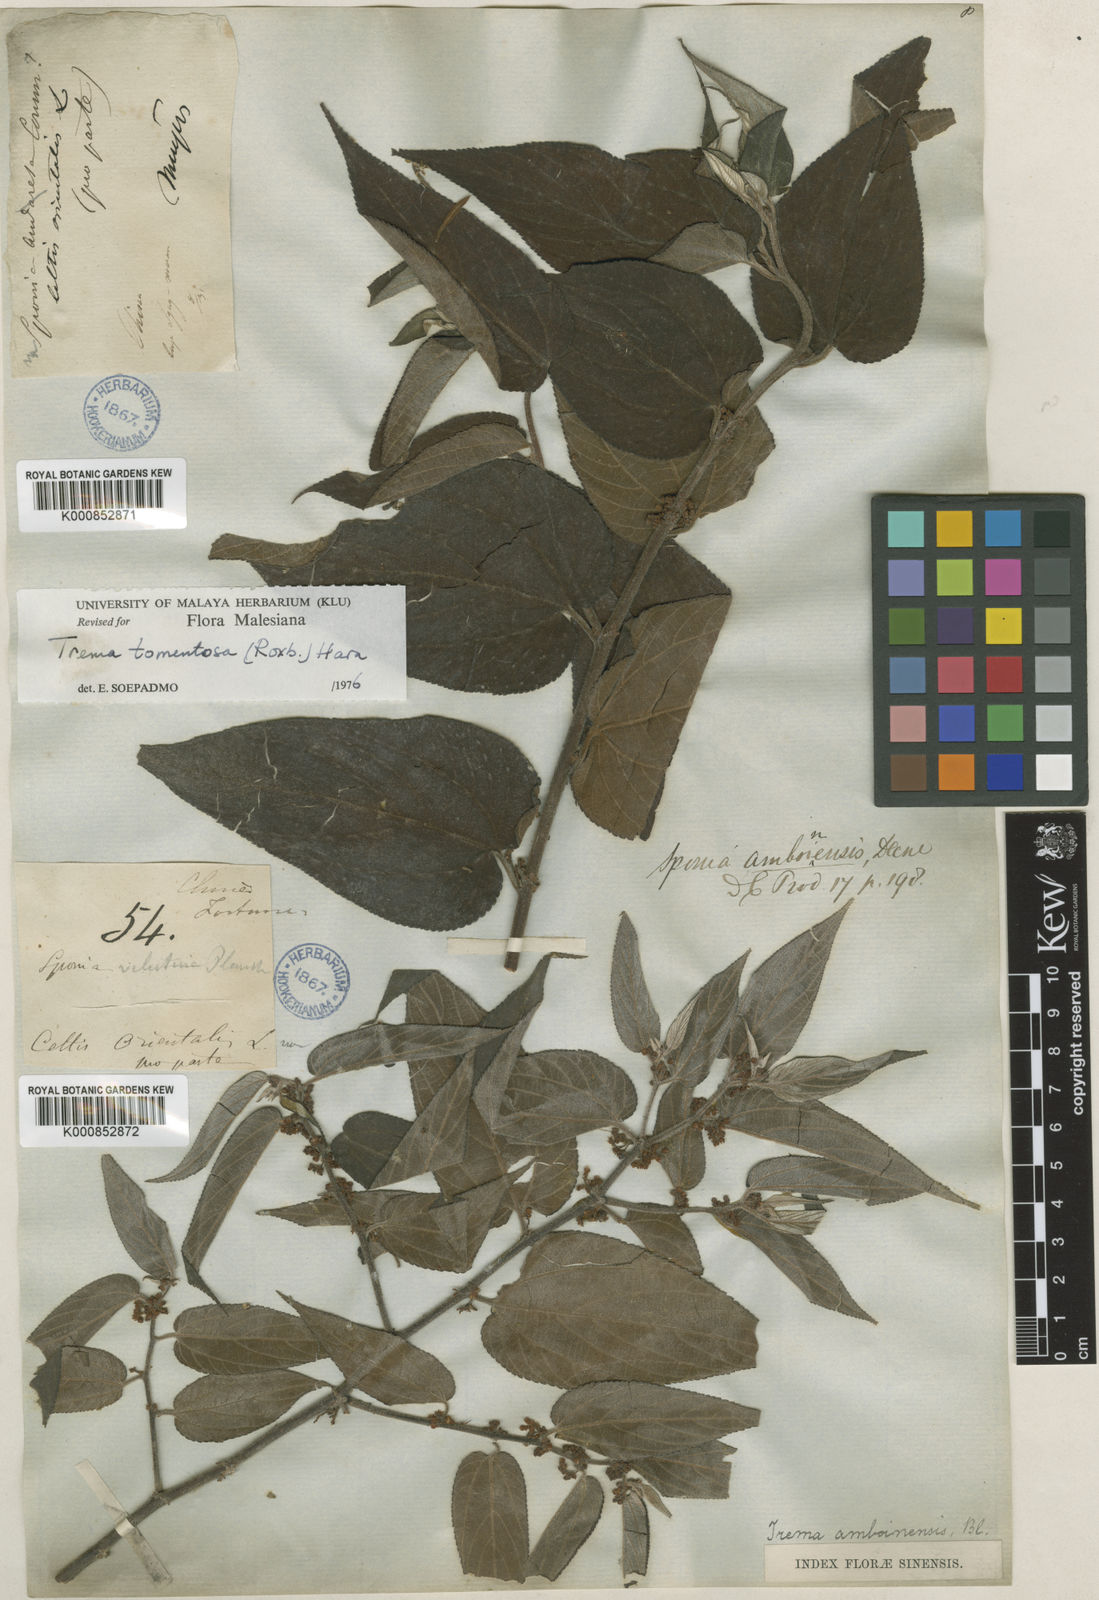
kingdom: Plantae
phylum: Tracheophyta
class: Magnoliopsida
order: Rosales
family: Cannabaceae
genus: Trema
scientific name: Trema tomentosum
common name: Peach-leaf-poisonbush
